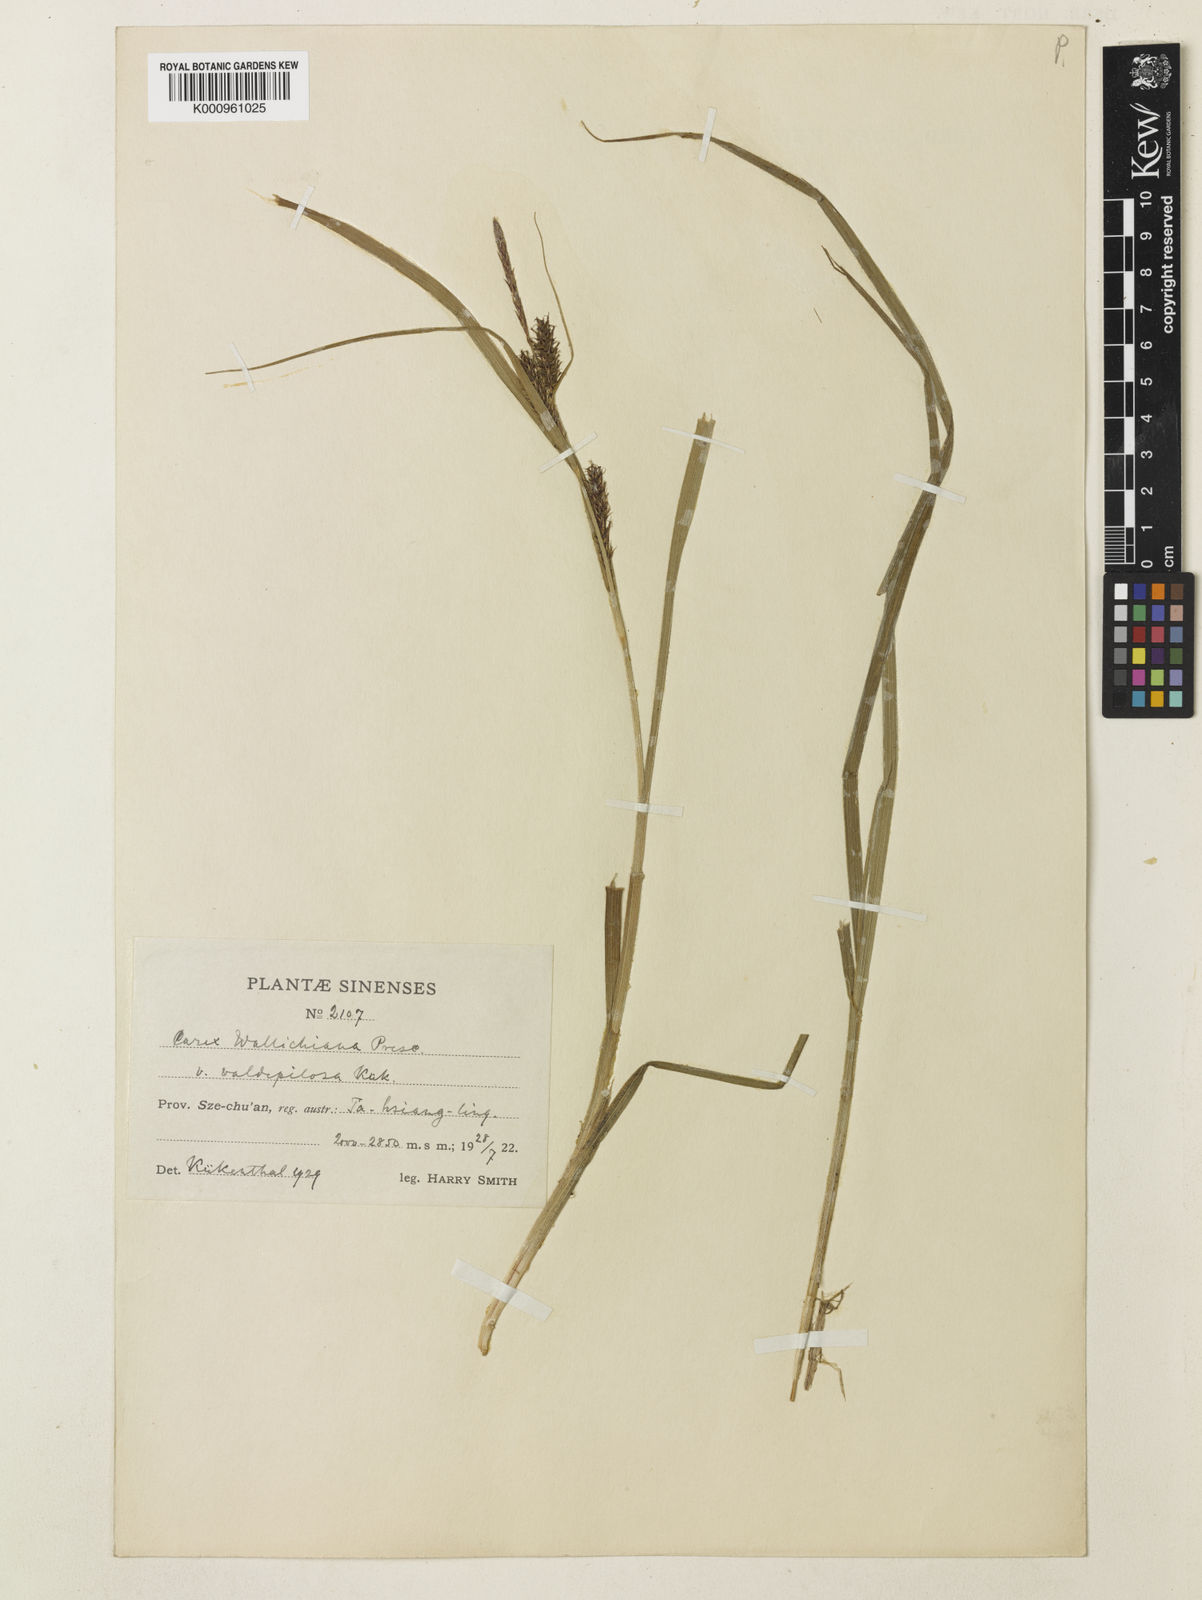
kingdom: Plantae
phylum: Tracheophyta
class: Liliopsida
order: Poales
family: Cyperaceae
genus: Carex
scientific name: Carex wallichiana
